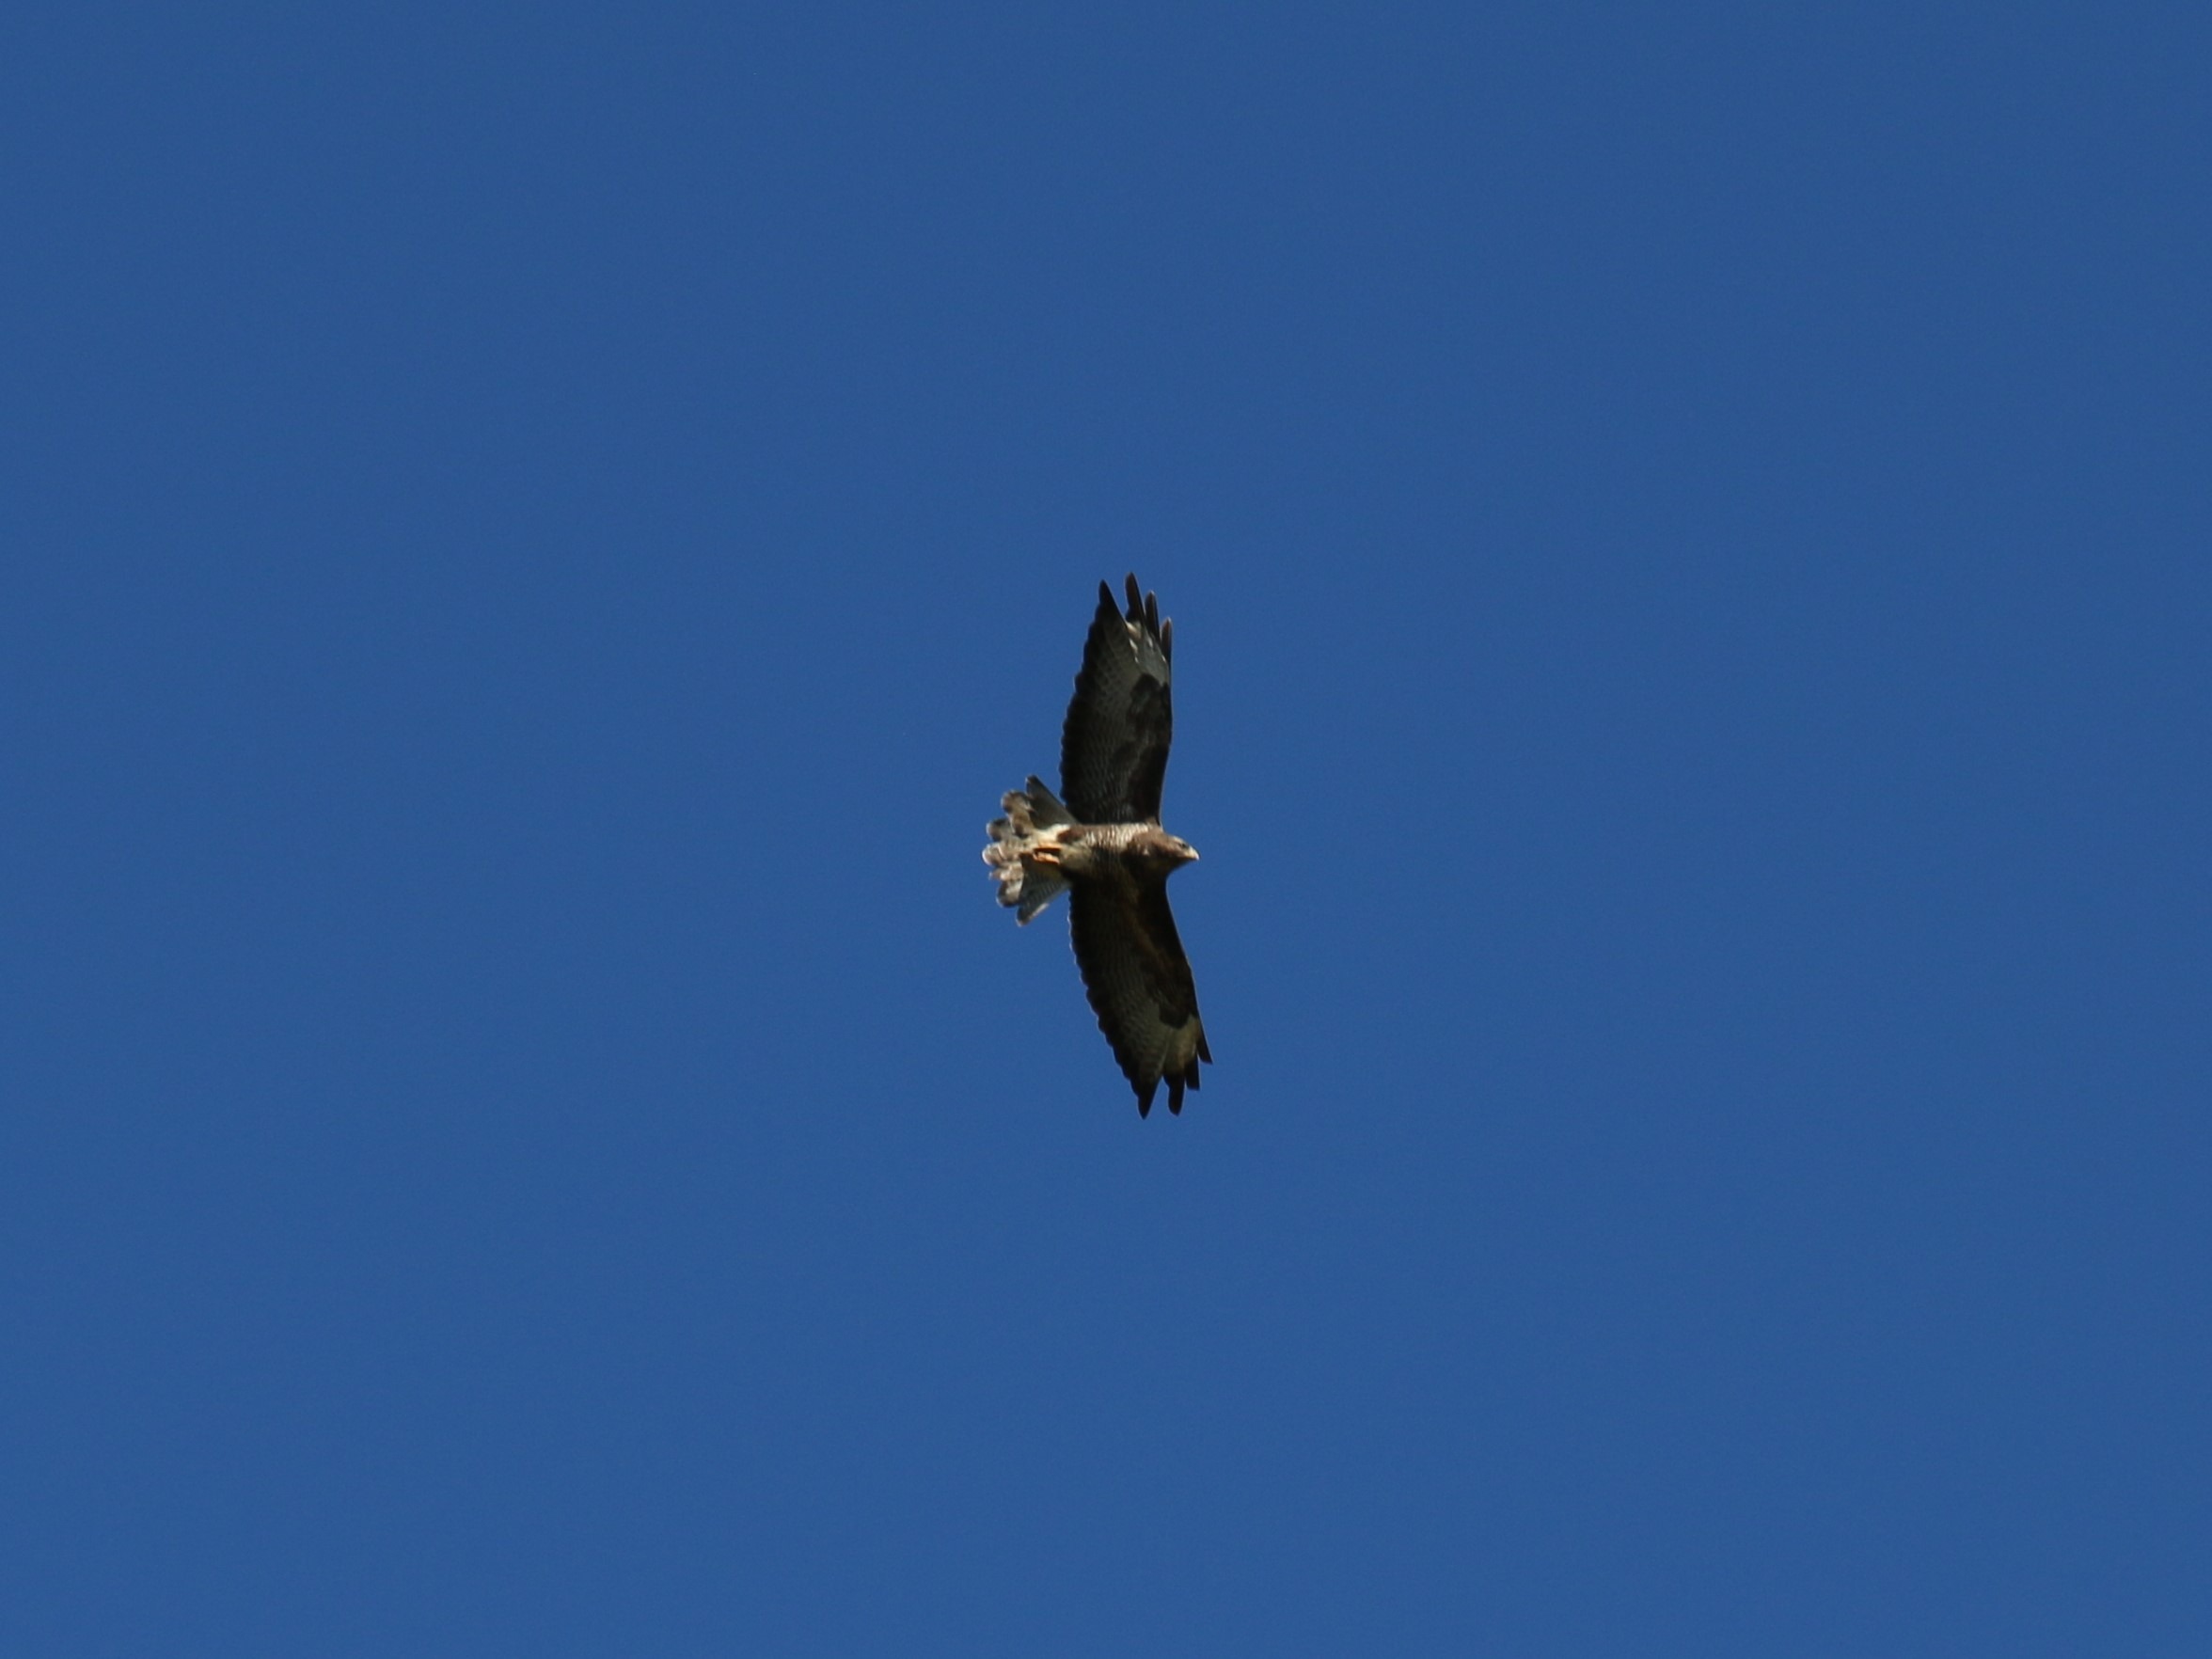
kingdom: Animalia
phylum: Chordata
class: Aves
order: Accipitriformes
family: Accipitridae
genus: Buteo
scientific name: Buteo buteo
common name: Musvåge
